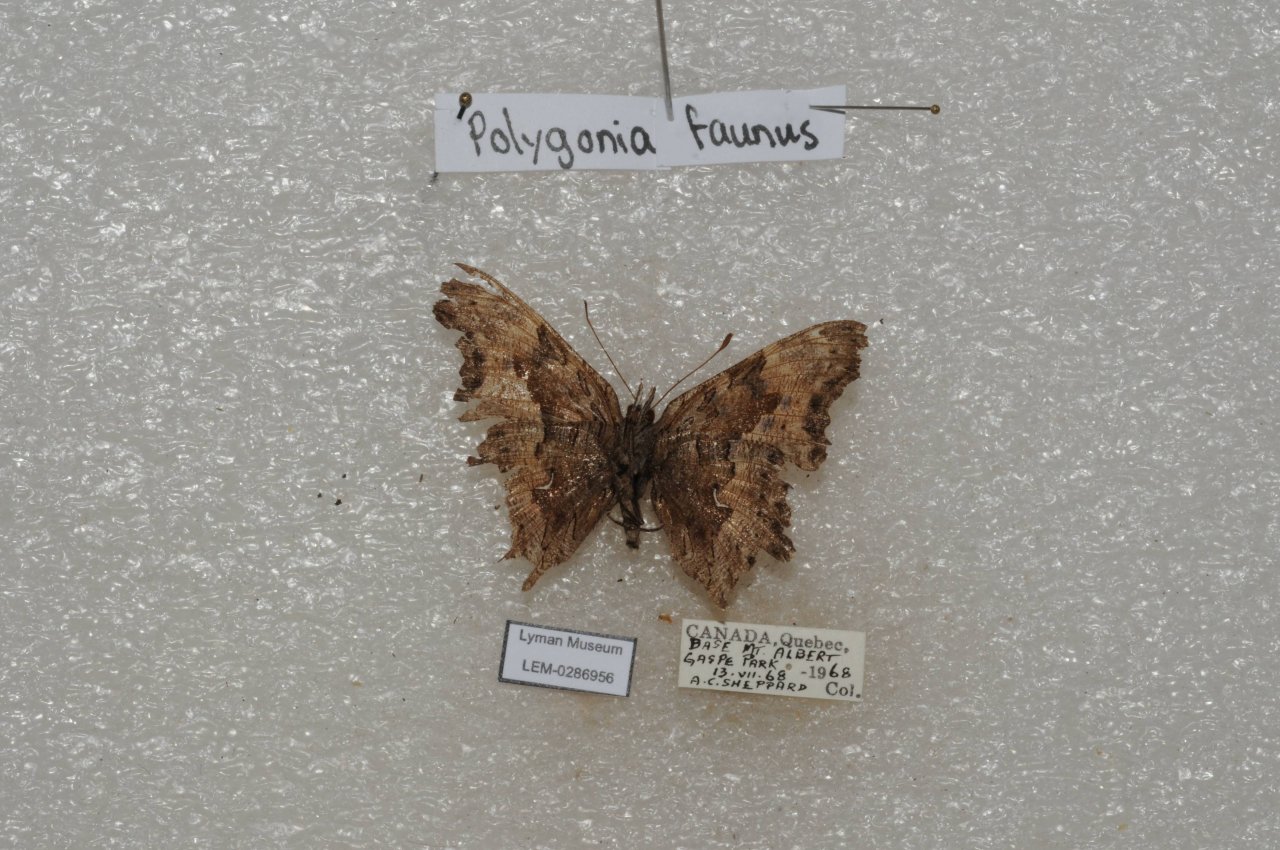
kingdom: Animalia
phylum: Arthropoda
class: Insecta
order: Lepidoptera
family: Nymphalidae
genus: Polygonia
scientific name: Polygonia faunus
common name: Green Comma
